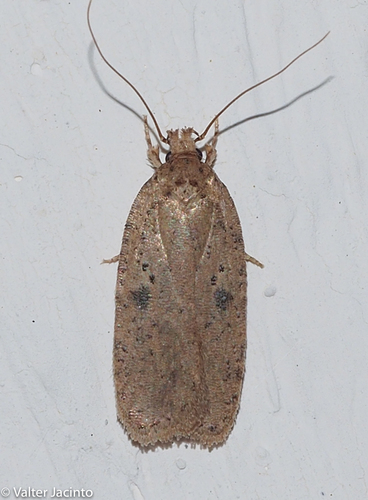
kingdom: Animalia
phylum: Arthropoda
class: Insecta
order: Lepidoptera
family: Depressariidae
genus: Agonopterix
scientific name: Agonopterix subpropinquella
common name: Ruddy flat-body
